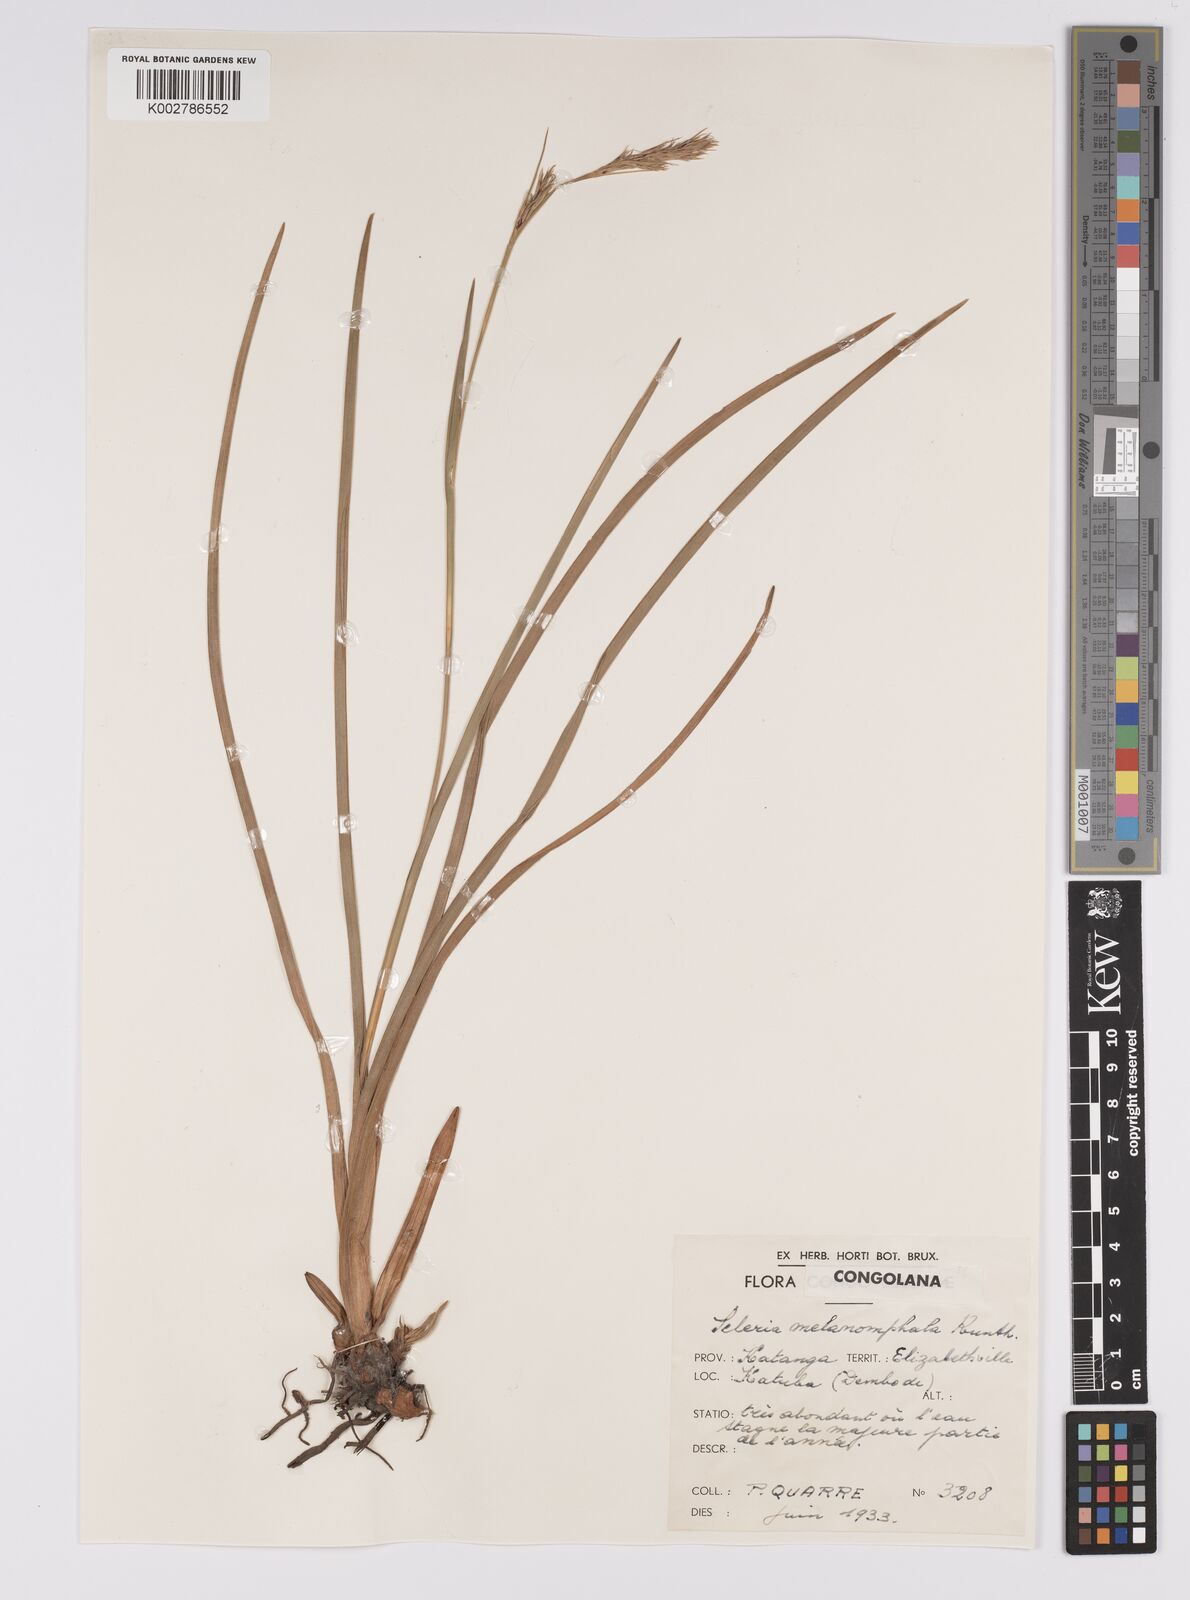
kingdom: Plantae
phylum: Tracheophyta
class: Liliopsida
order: Poales
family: Cyperaceae
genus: Scleria
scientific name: Scleria melanomphala
